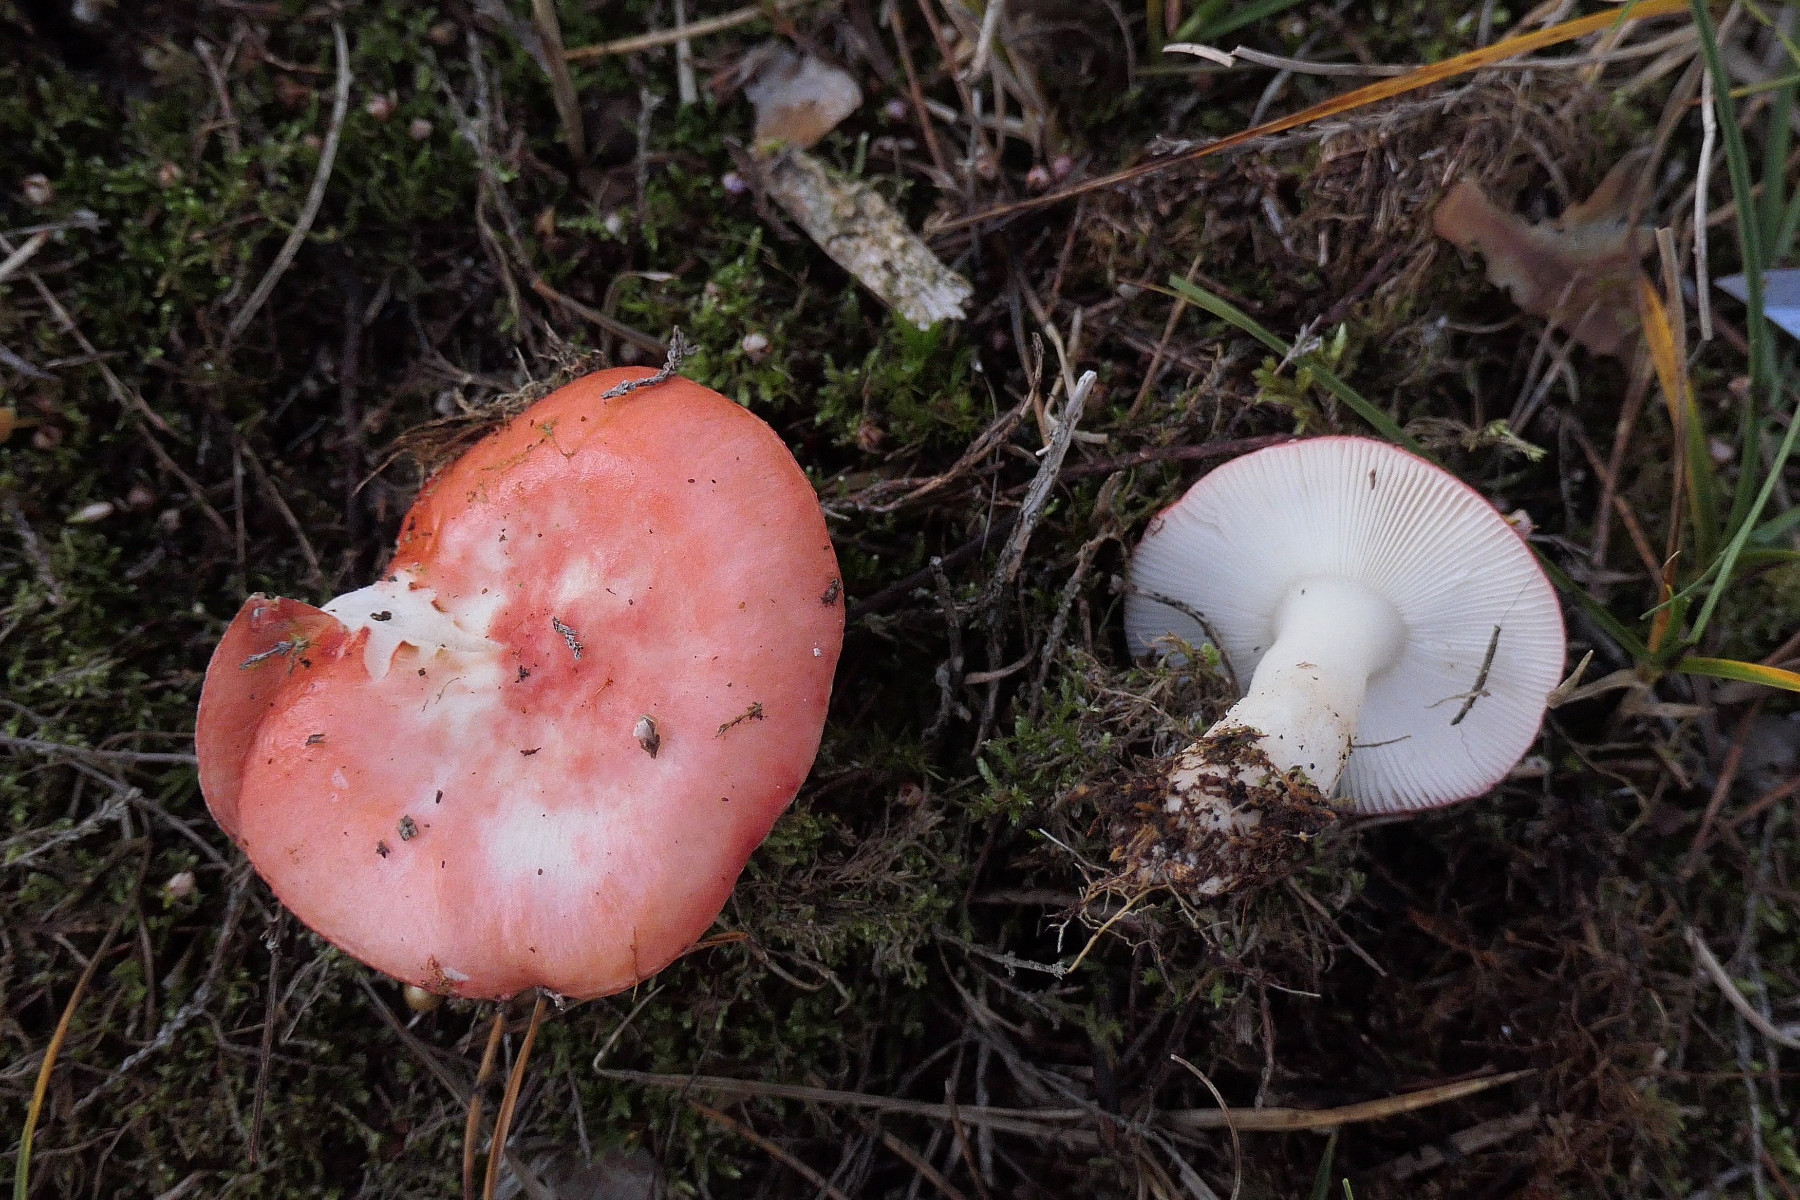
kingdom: Fungi
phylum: Basidiomycota
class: Agaricomycetes
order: Russulales
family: Russulaceae
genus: Russula
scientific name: Russula emetica
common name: stor gift-skørhat
